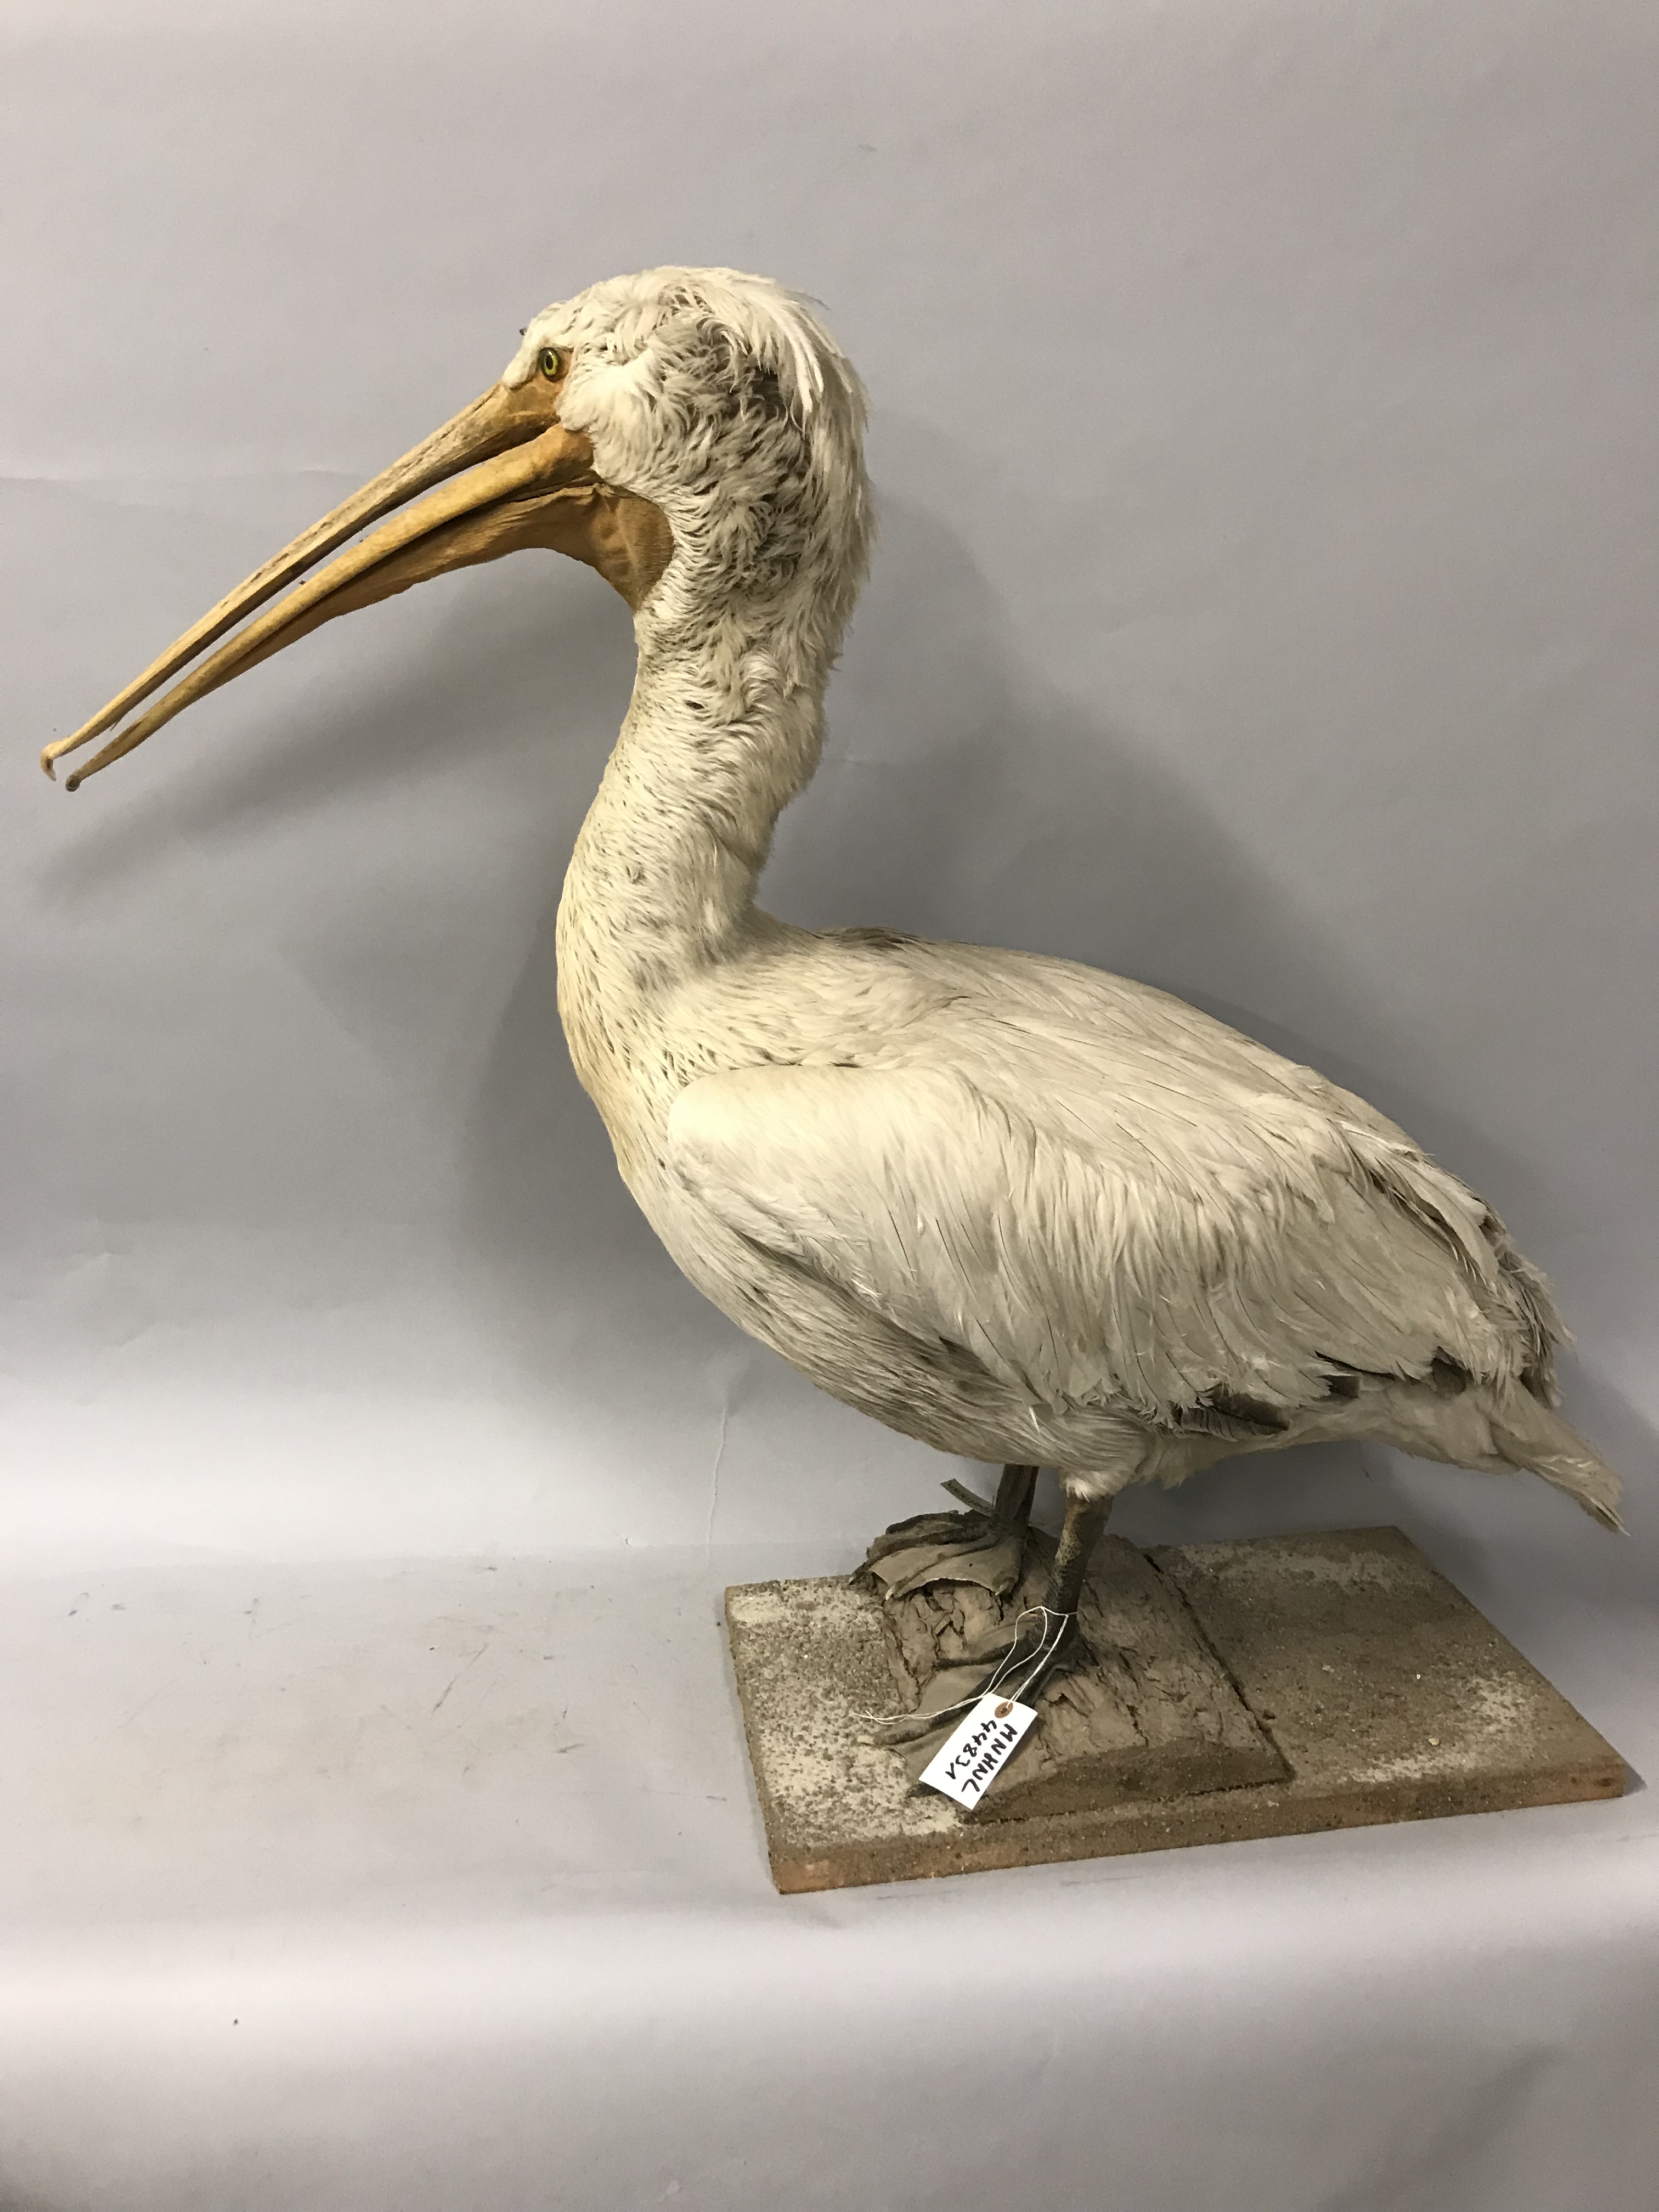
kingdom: Animalia
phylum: Chordata
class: Aves
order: Pelecaniformes
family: Pelecanidae
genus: Pelecanus
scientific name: Pelecanus crispus
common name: Dalmatian pelican
